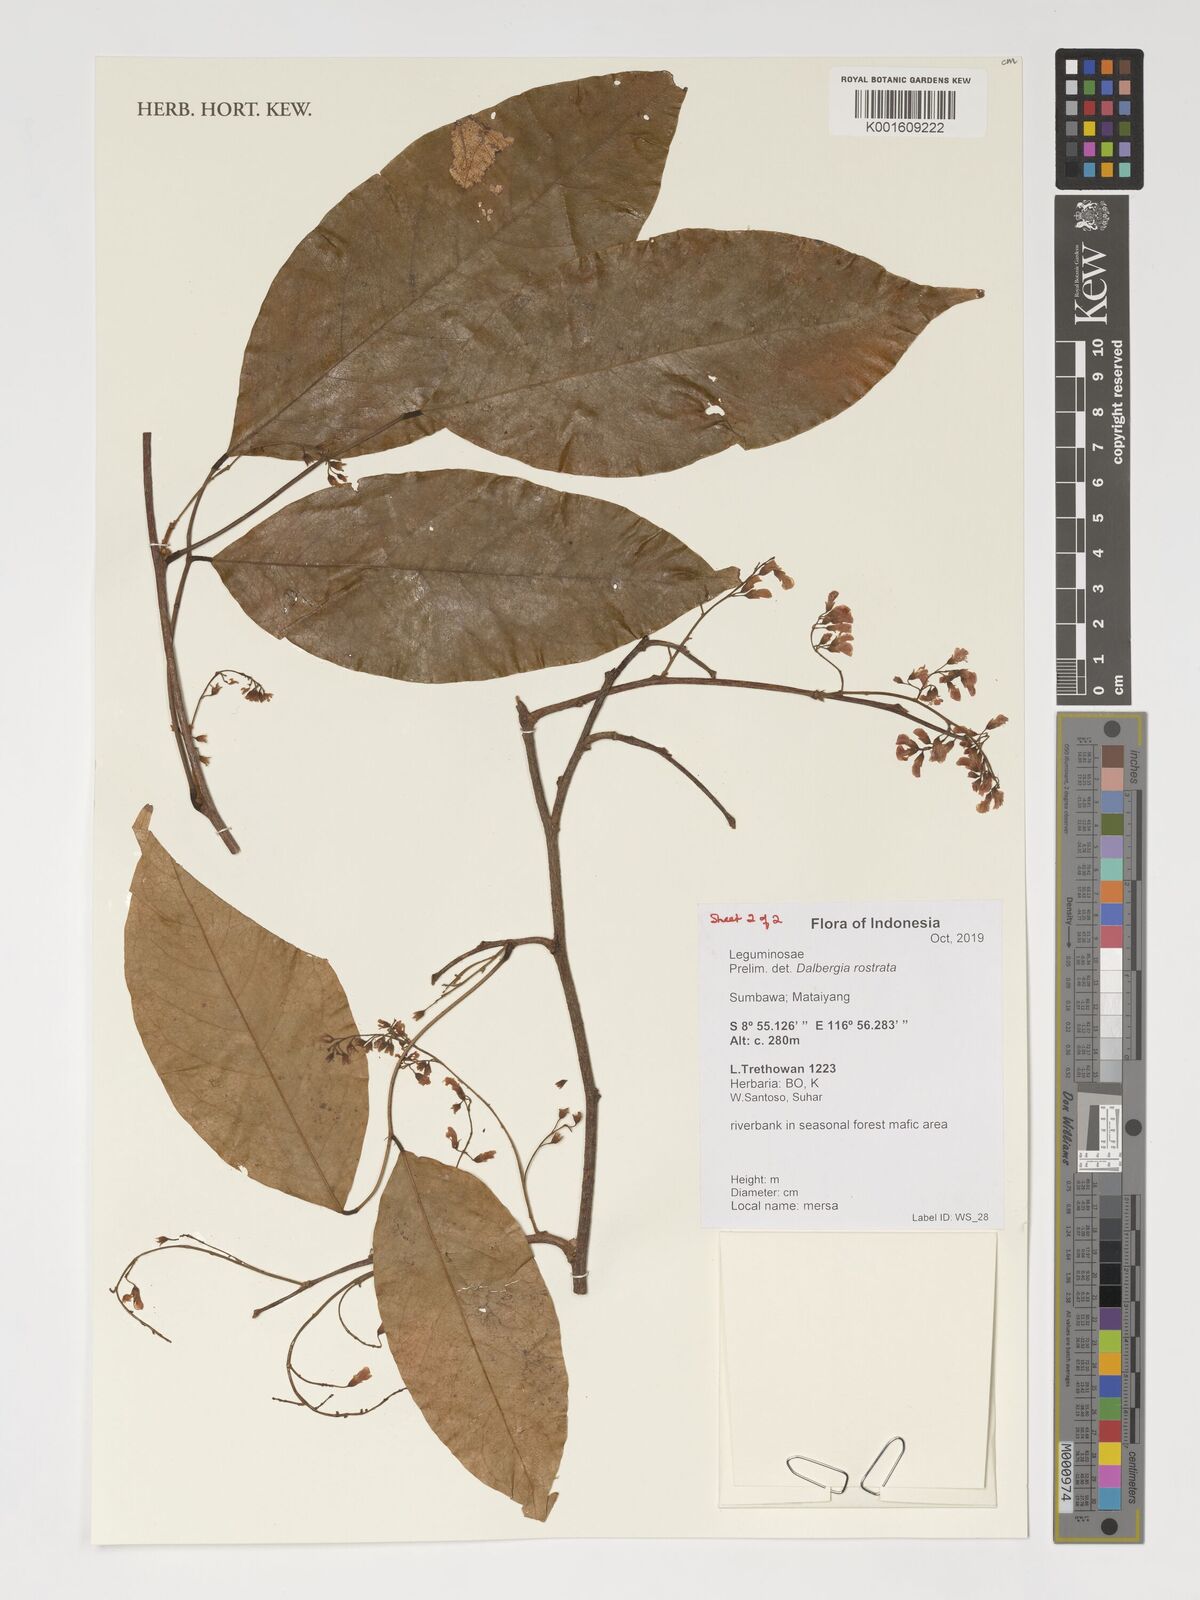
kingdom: Plantae
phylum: Tracheophyta
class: Magnoliopsida
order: Fabales
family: Fabaceae
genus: Dalbergia
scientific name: Dalbergia rostrata
